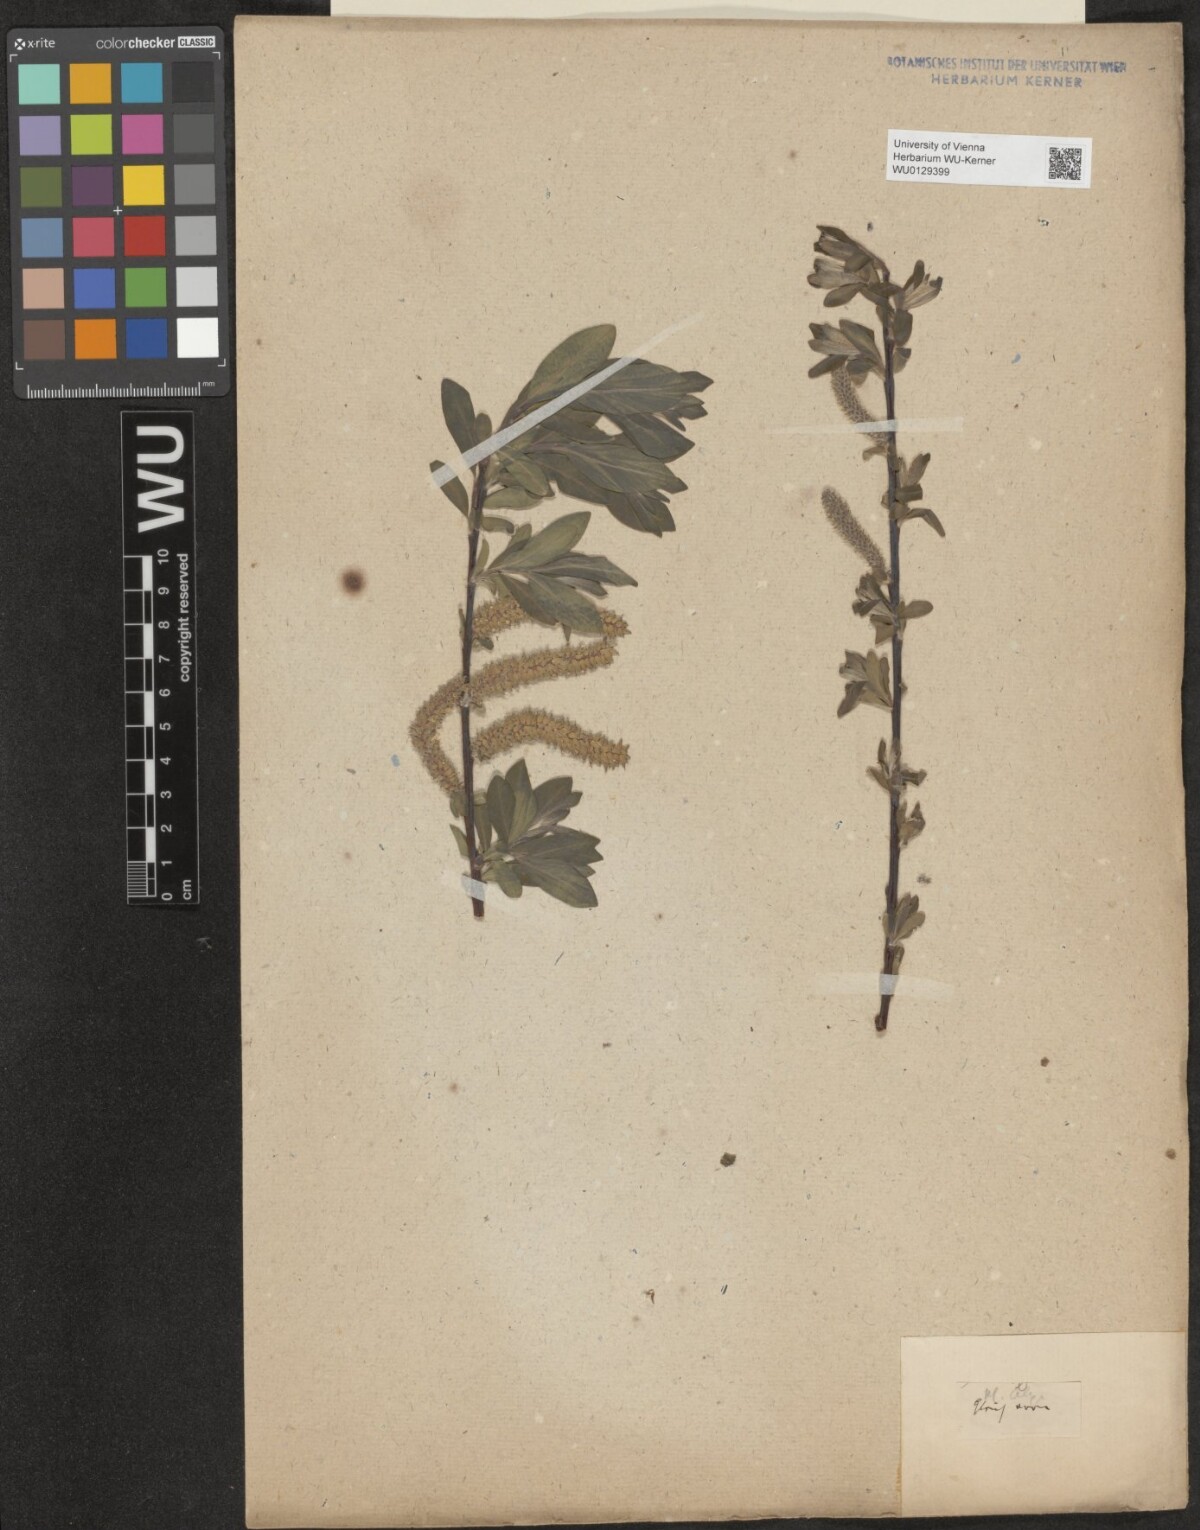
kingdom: Plantae
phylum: Tracheophyta
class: Magnoliopsida
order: Malpighiales
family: Salicaceae
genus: Salix
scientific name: Salix hastata
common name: Halberd willow
